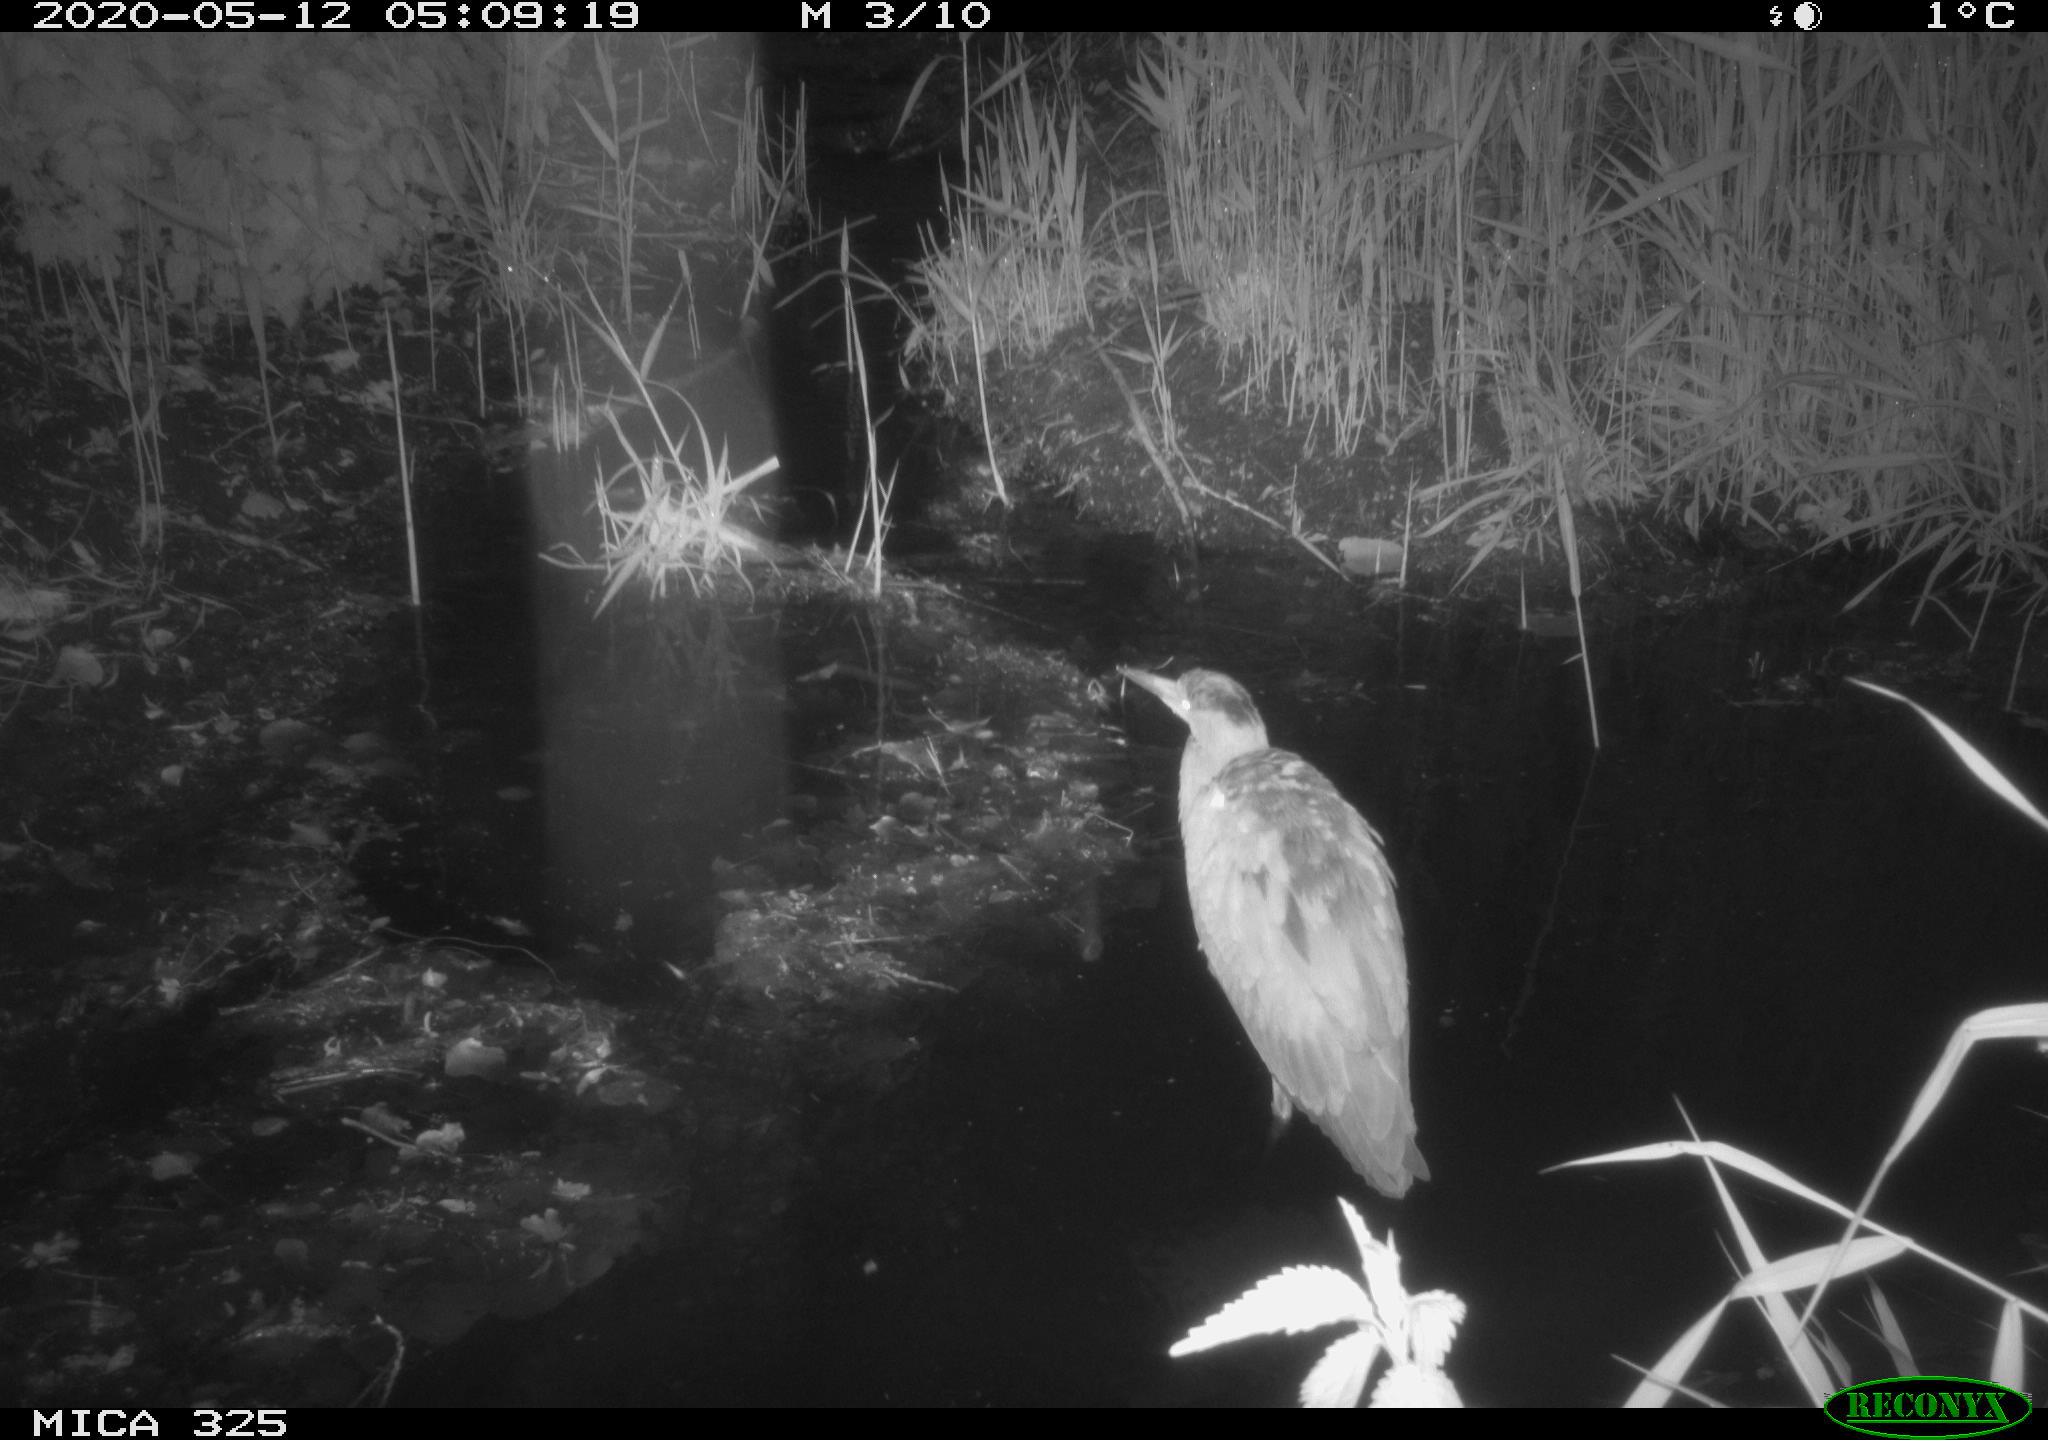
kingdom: Animalia
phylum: Chordata
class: Aves
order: Pelecaniformes
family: Ardeidae
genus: Ardea
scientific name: Ardea cinerea
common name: Grey heron
